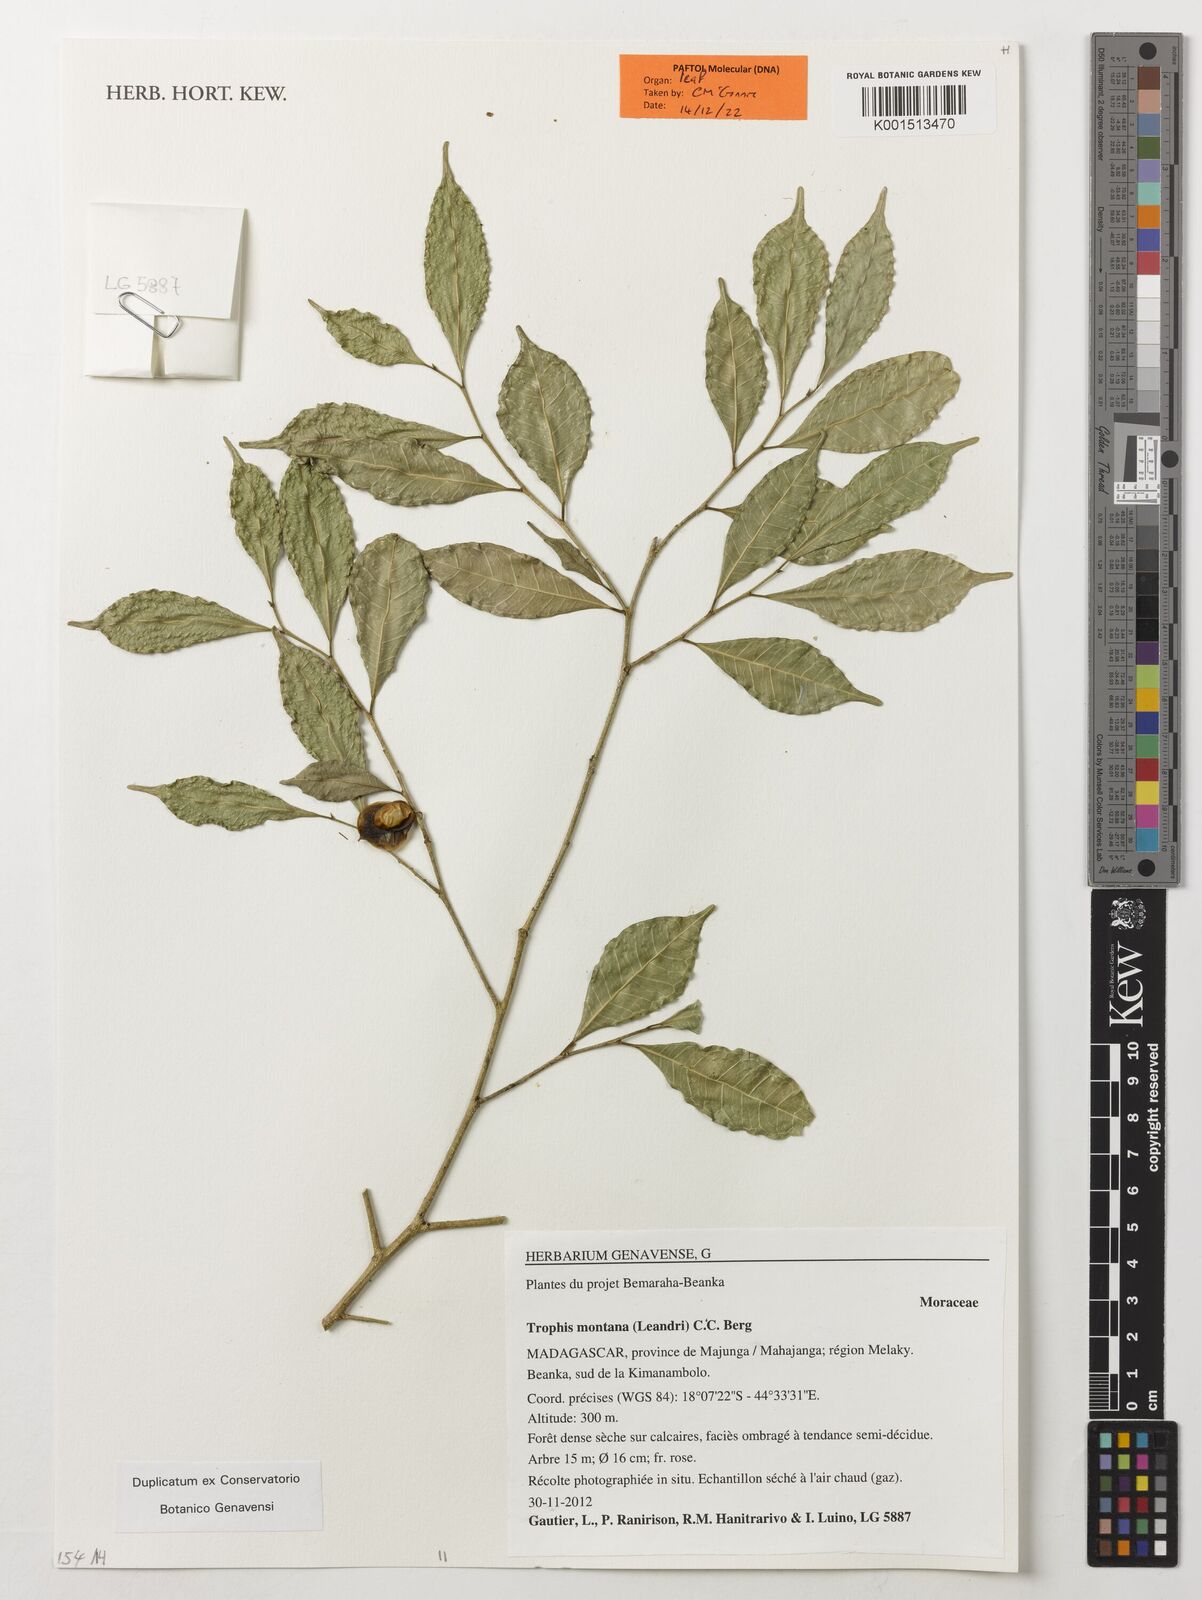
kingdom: Plantae
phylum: Tracheophyta
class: Magnoliopsida
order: Rosales
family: Moraceae
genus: Maillardia
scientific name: Maillardia montana
